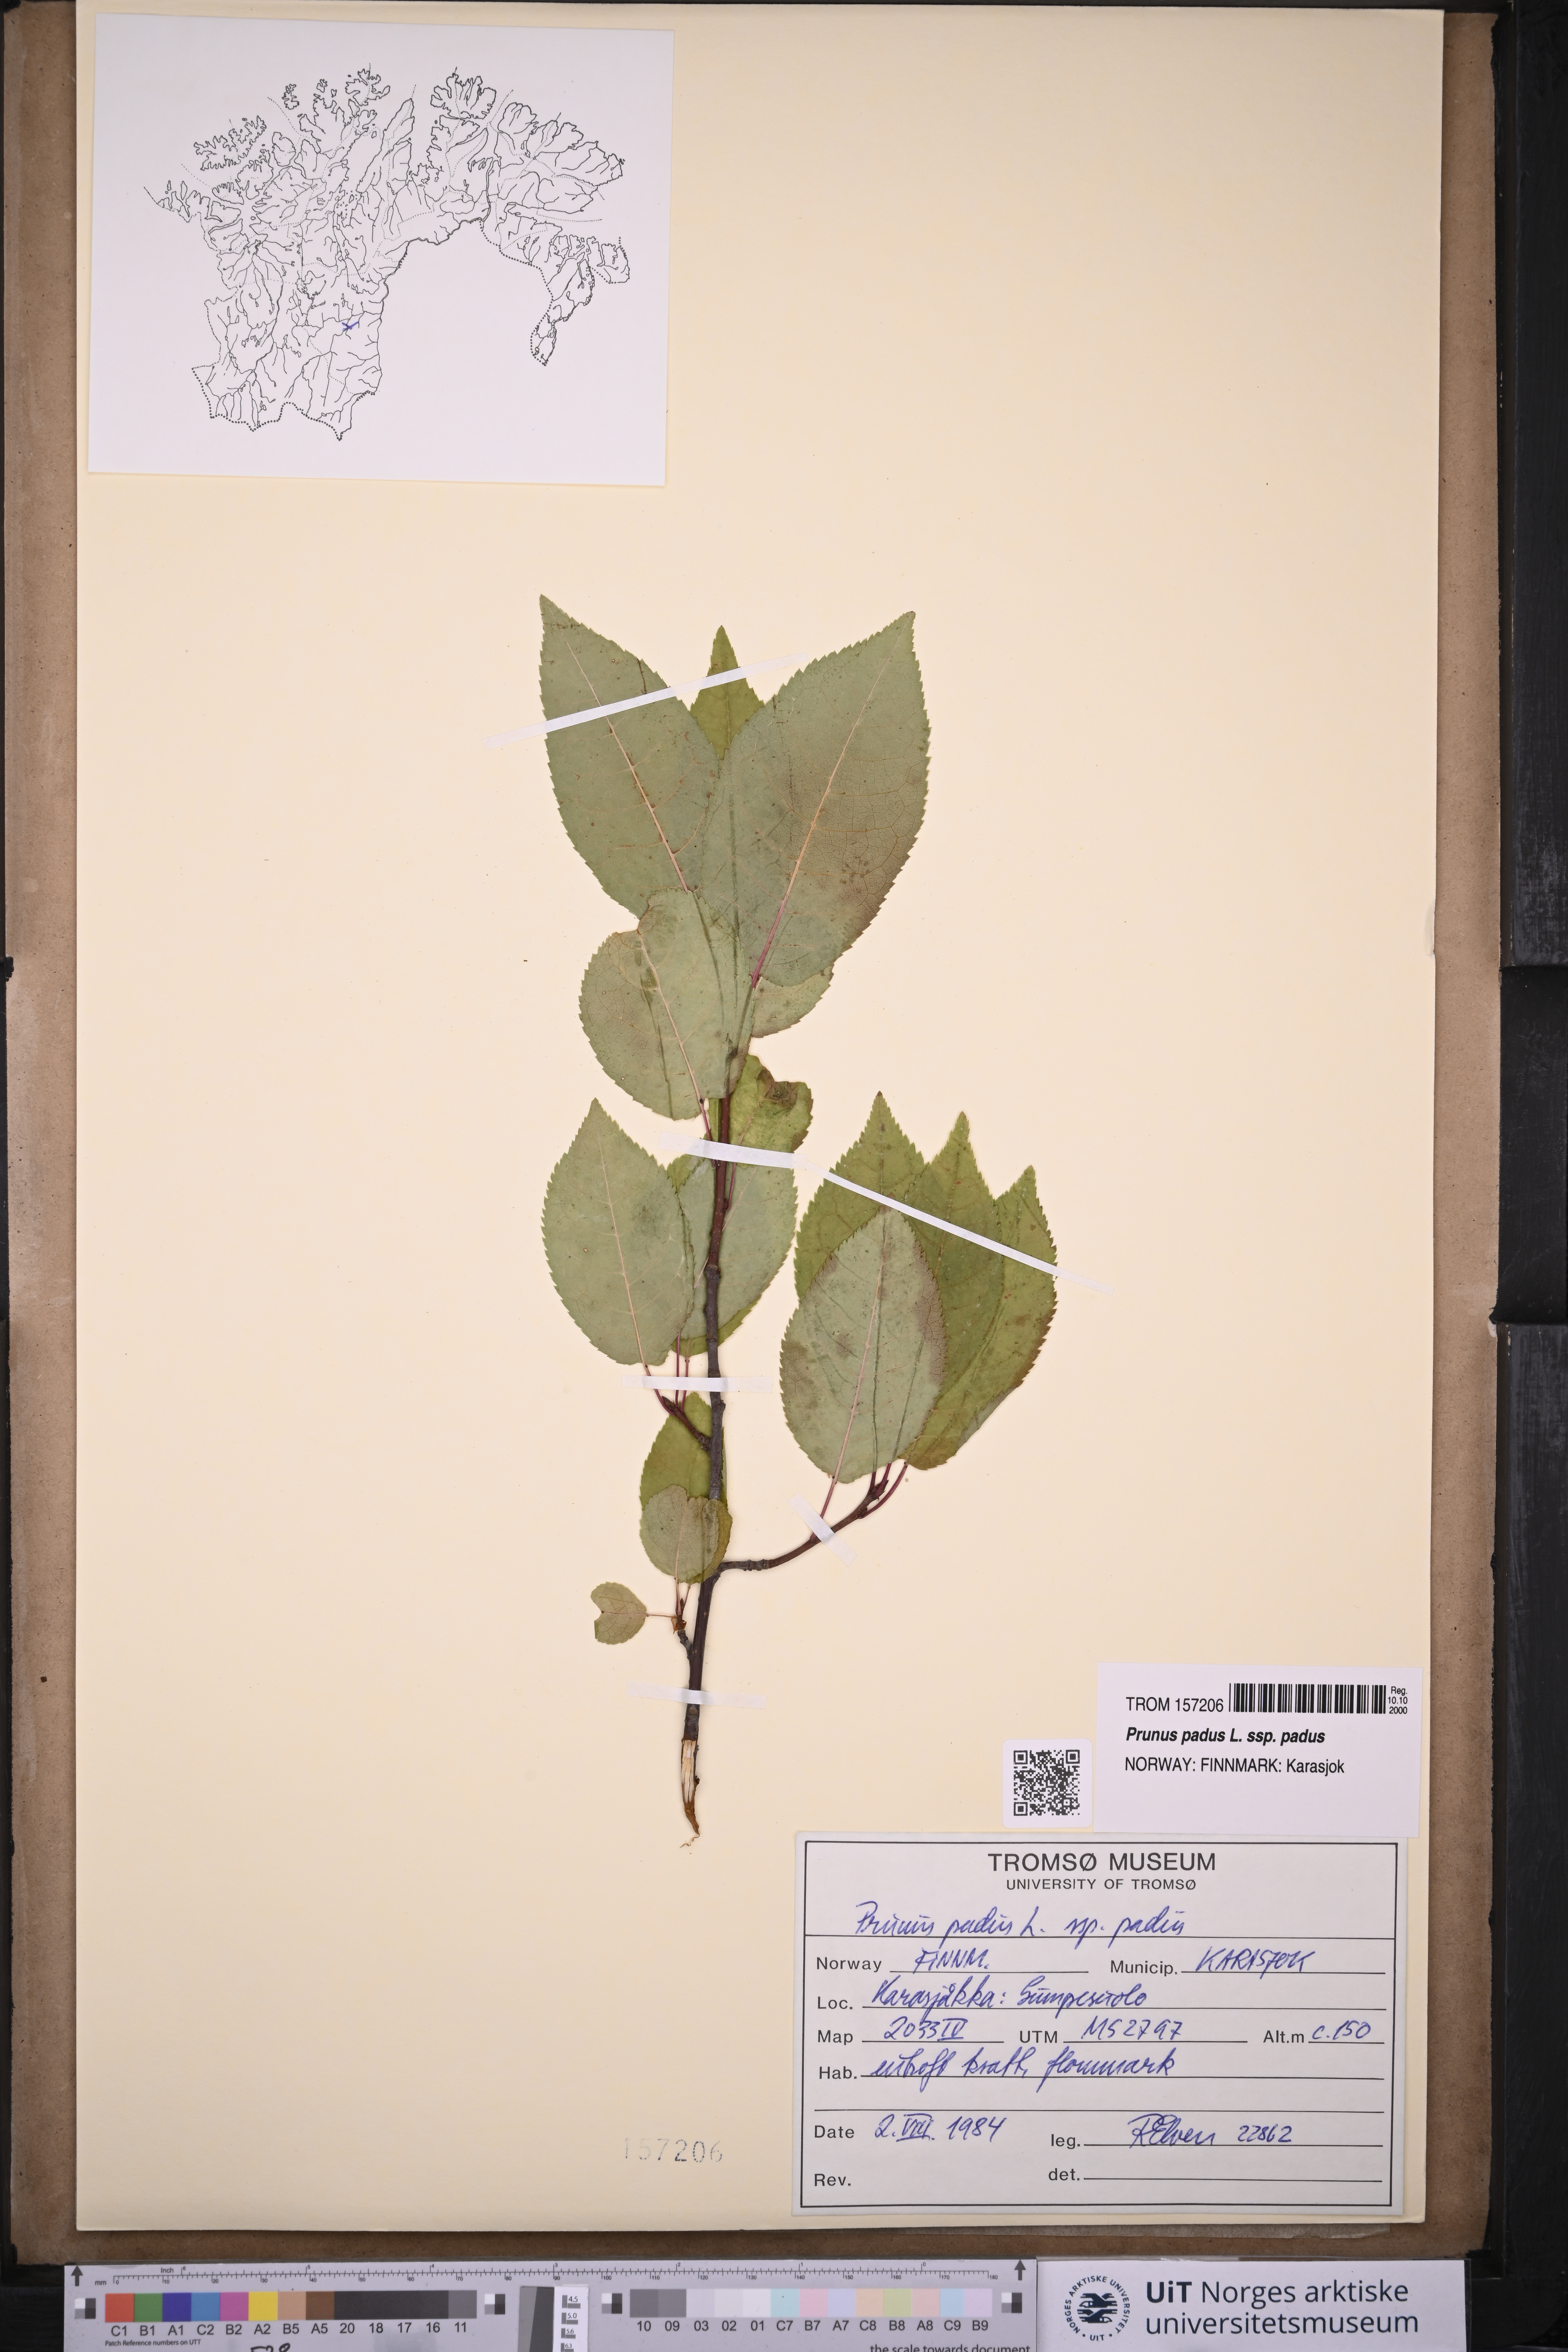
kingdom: Plantae
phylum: Tracheophyta
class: Magnoliopsida
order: Rosales
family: Rosaceae
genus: Prunus
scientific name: Prunus padus
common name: Bird cherry
